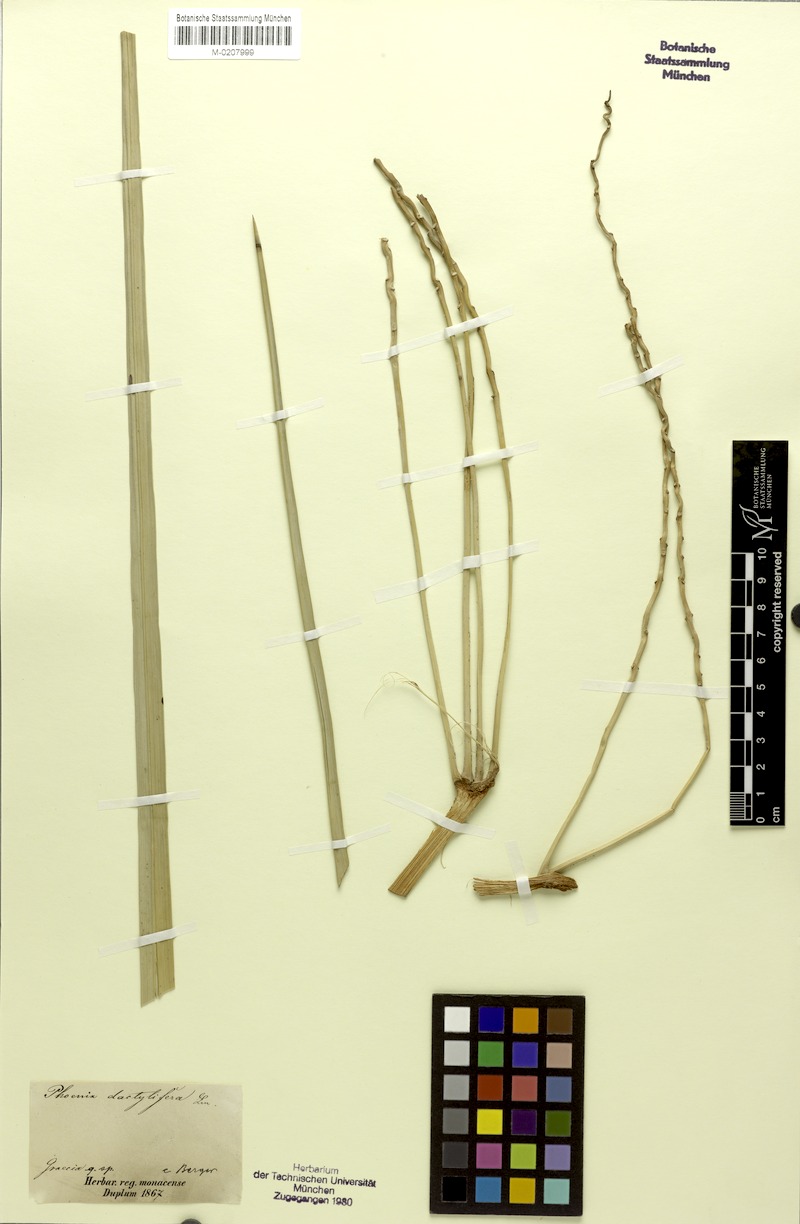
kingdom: Plantae
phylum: Tracheophyta
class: Liliopsida
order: Arecales
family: Arecaceae
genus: Phoenix
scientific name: Phoenix dactylifera
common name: Date palm
